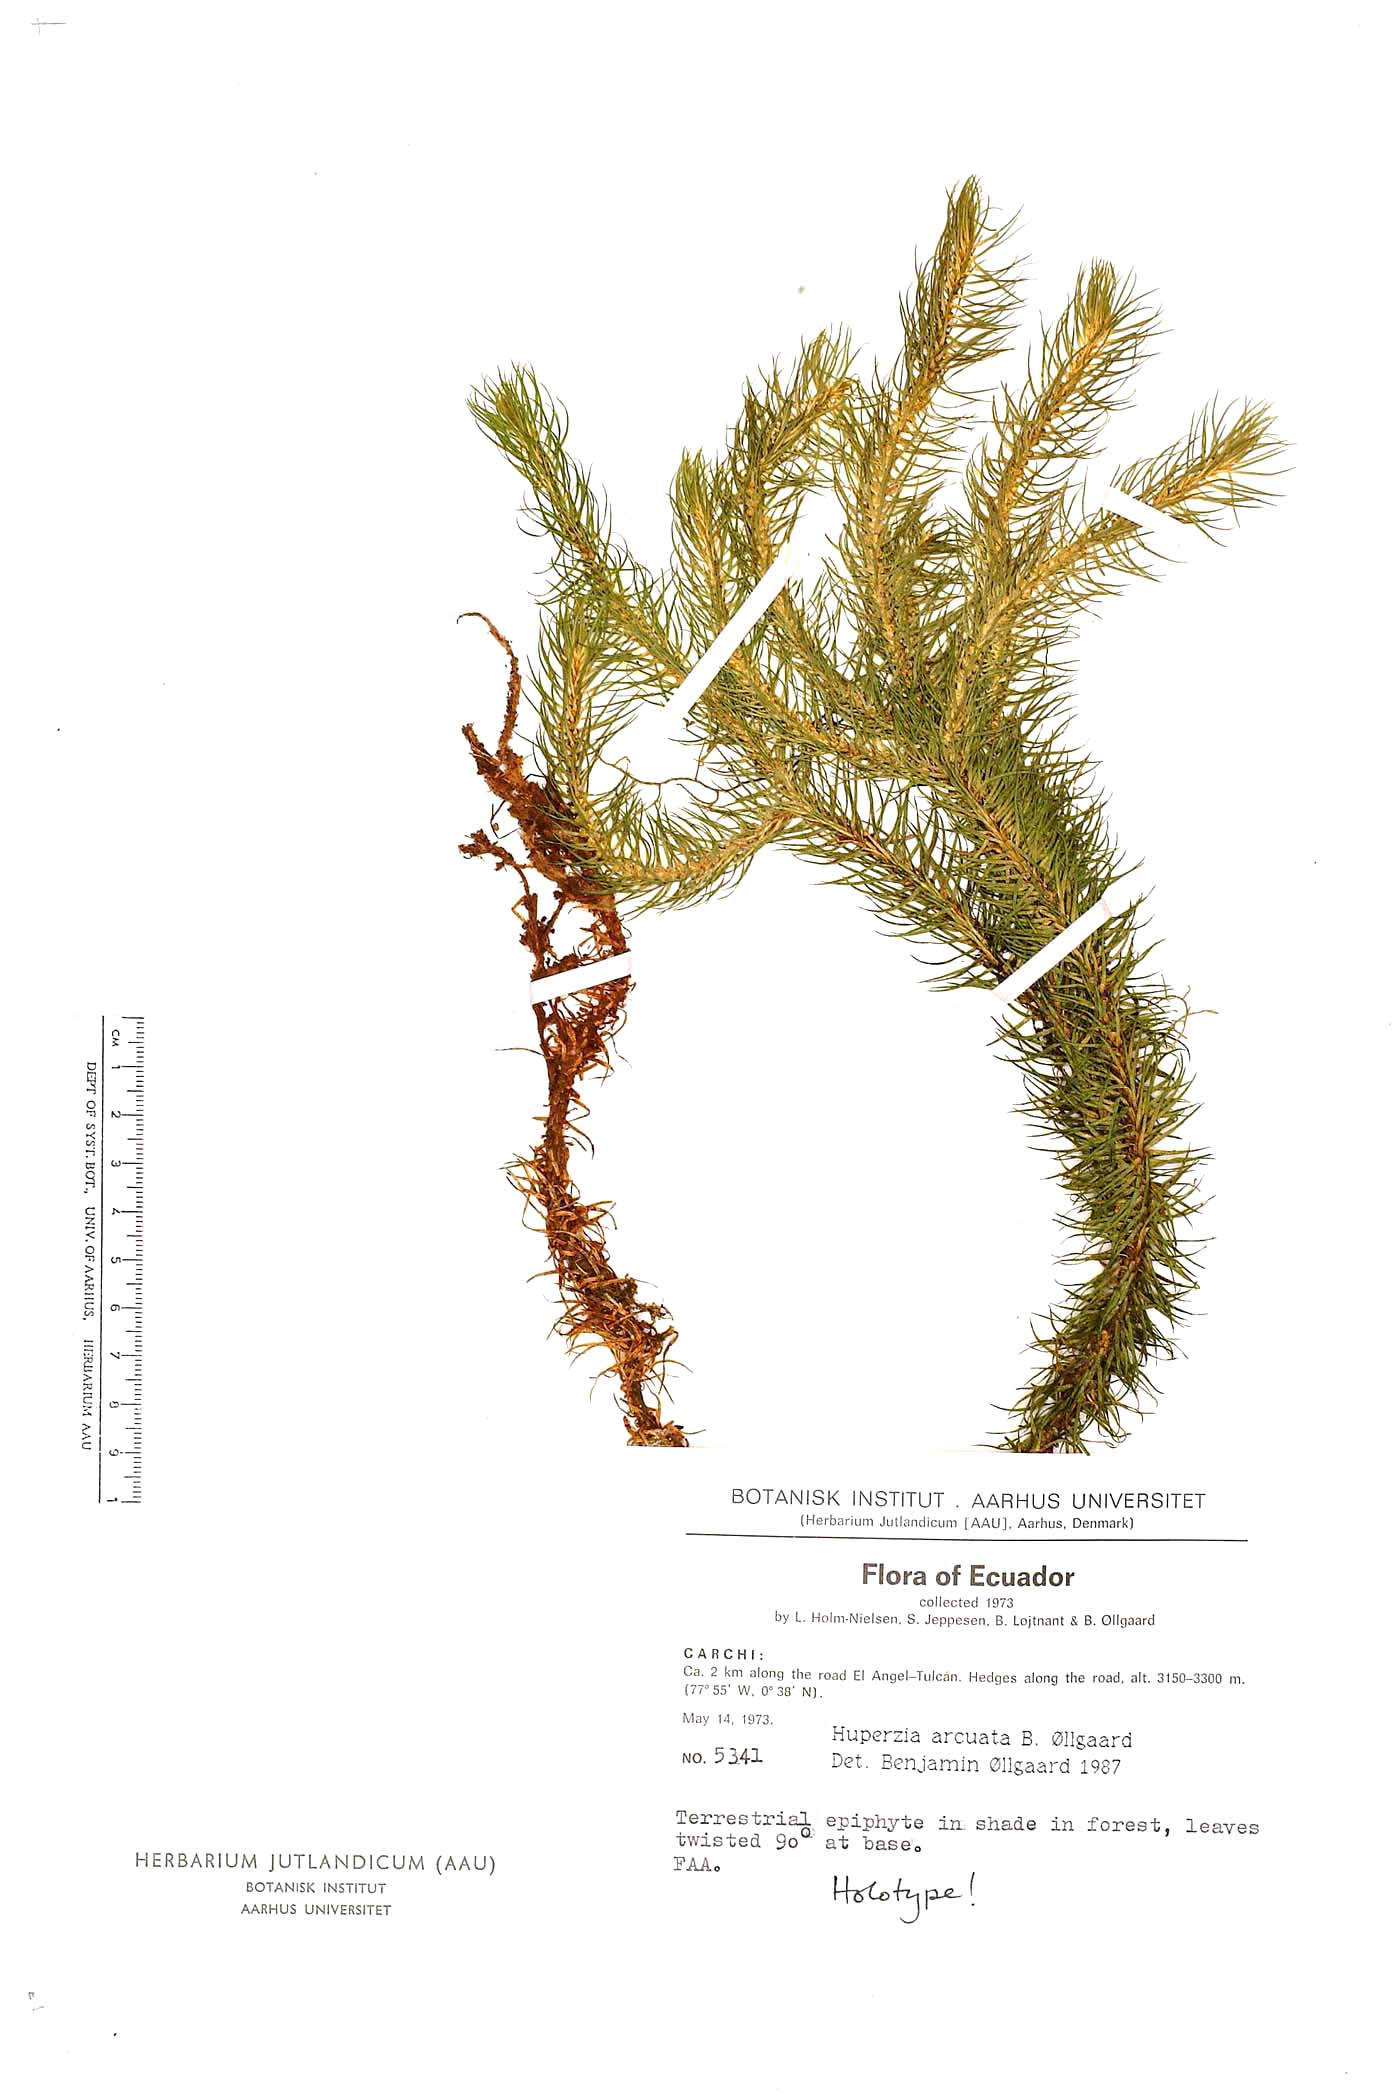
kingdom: Plantae
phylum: Tracheophyta
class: Lycopodiopsida
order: Lycopodiales
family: Lycopodiaceae
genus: Phlegmariurus
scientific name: Phlegmariurus arcuatus
